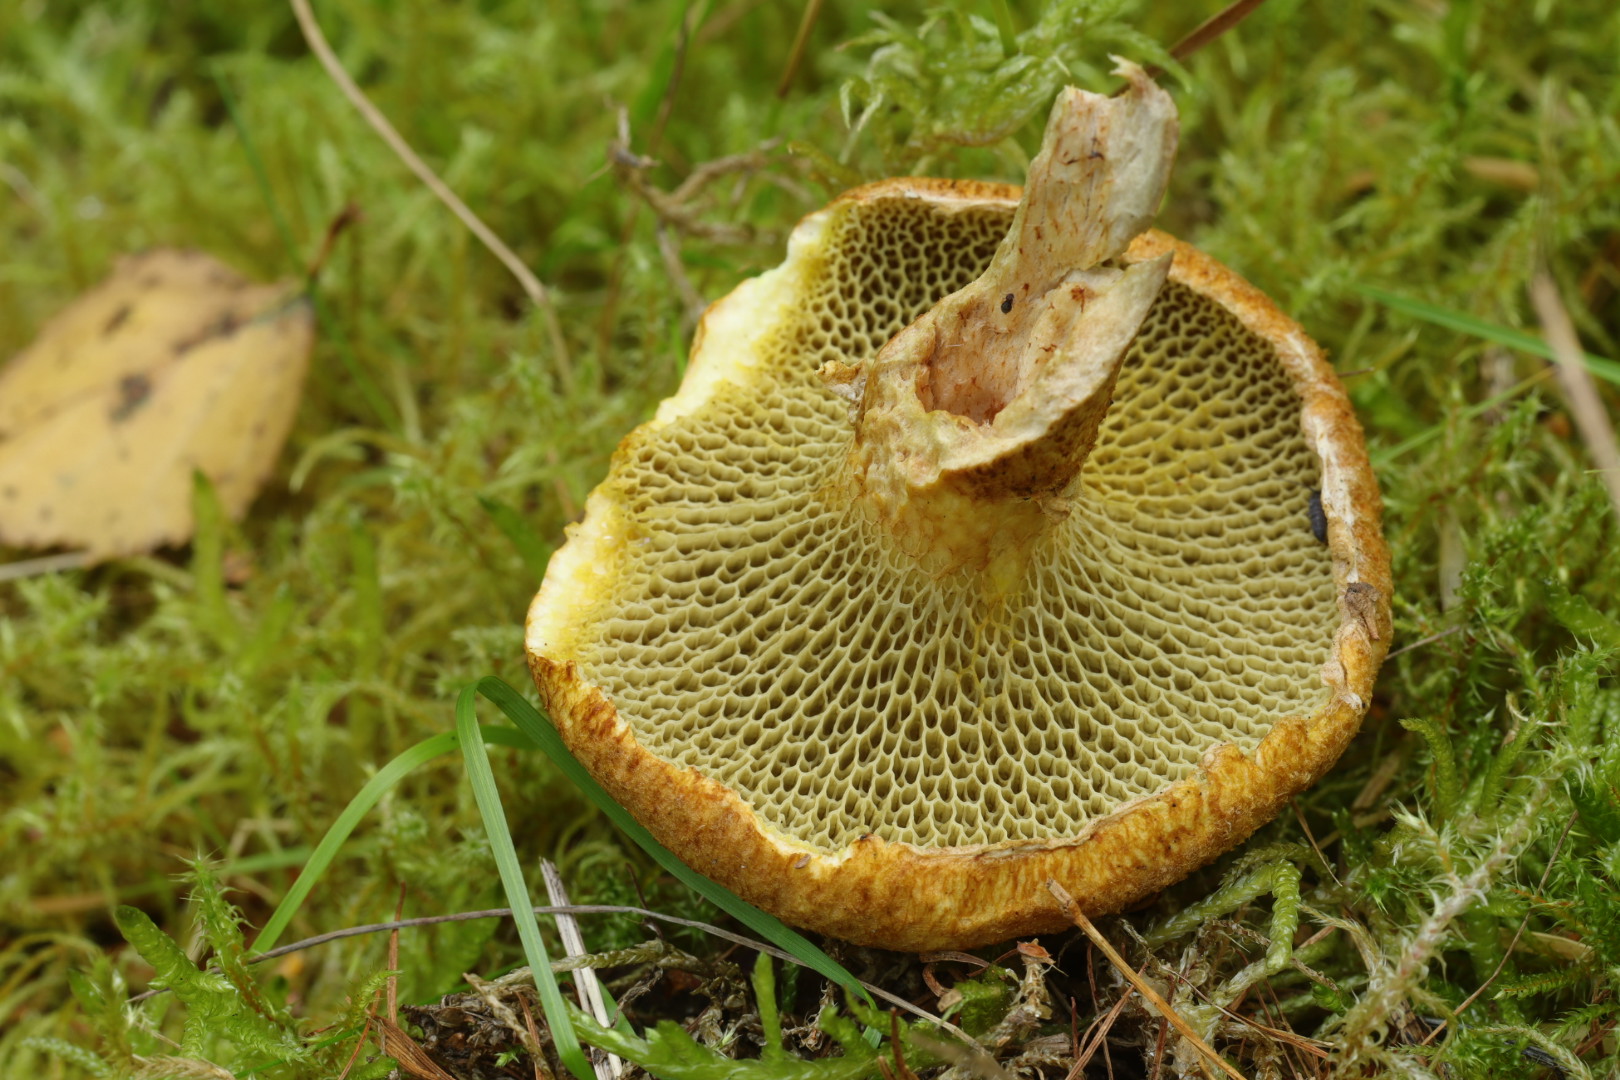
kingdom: Fungi
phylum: Basidiomycota
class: Agaricomycetes
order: Boletales
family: Suillaceae
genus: Suillus
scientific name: Suillus cavipes
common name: hulstokket slimrørhat
